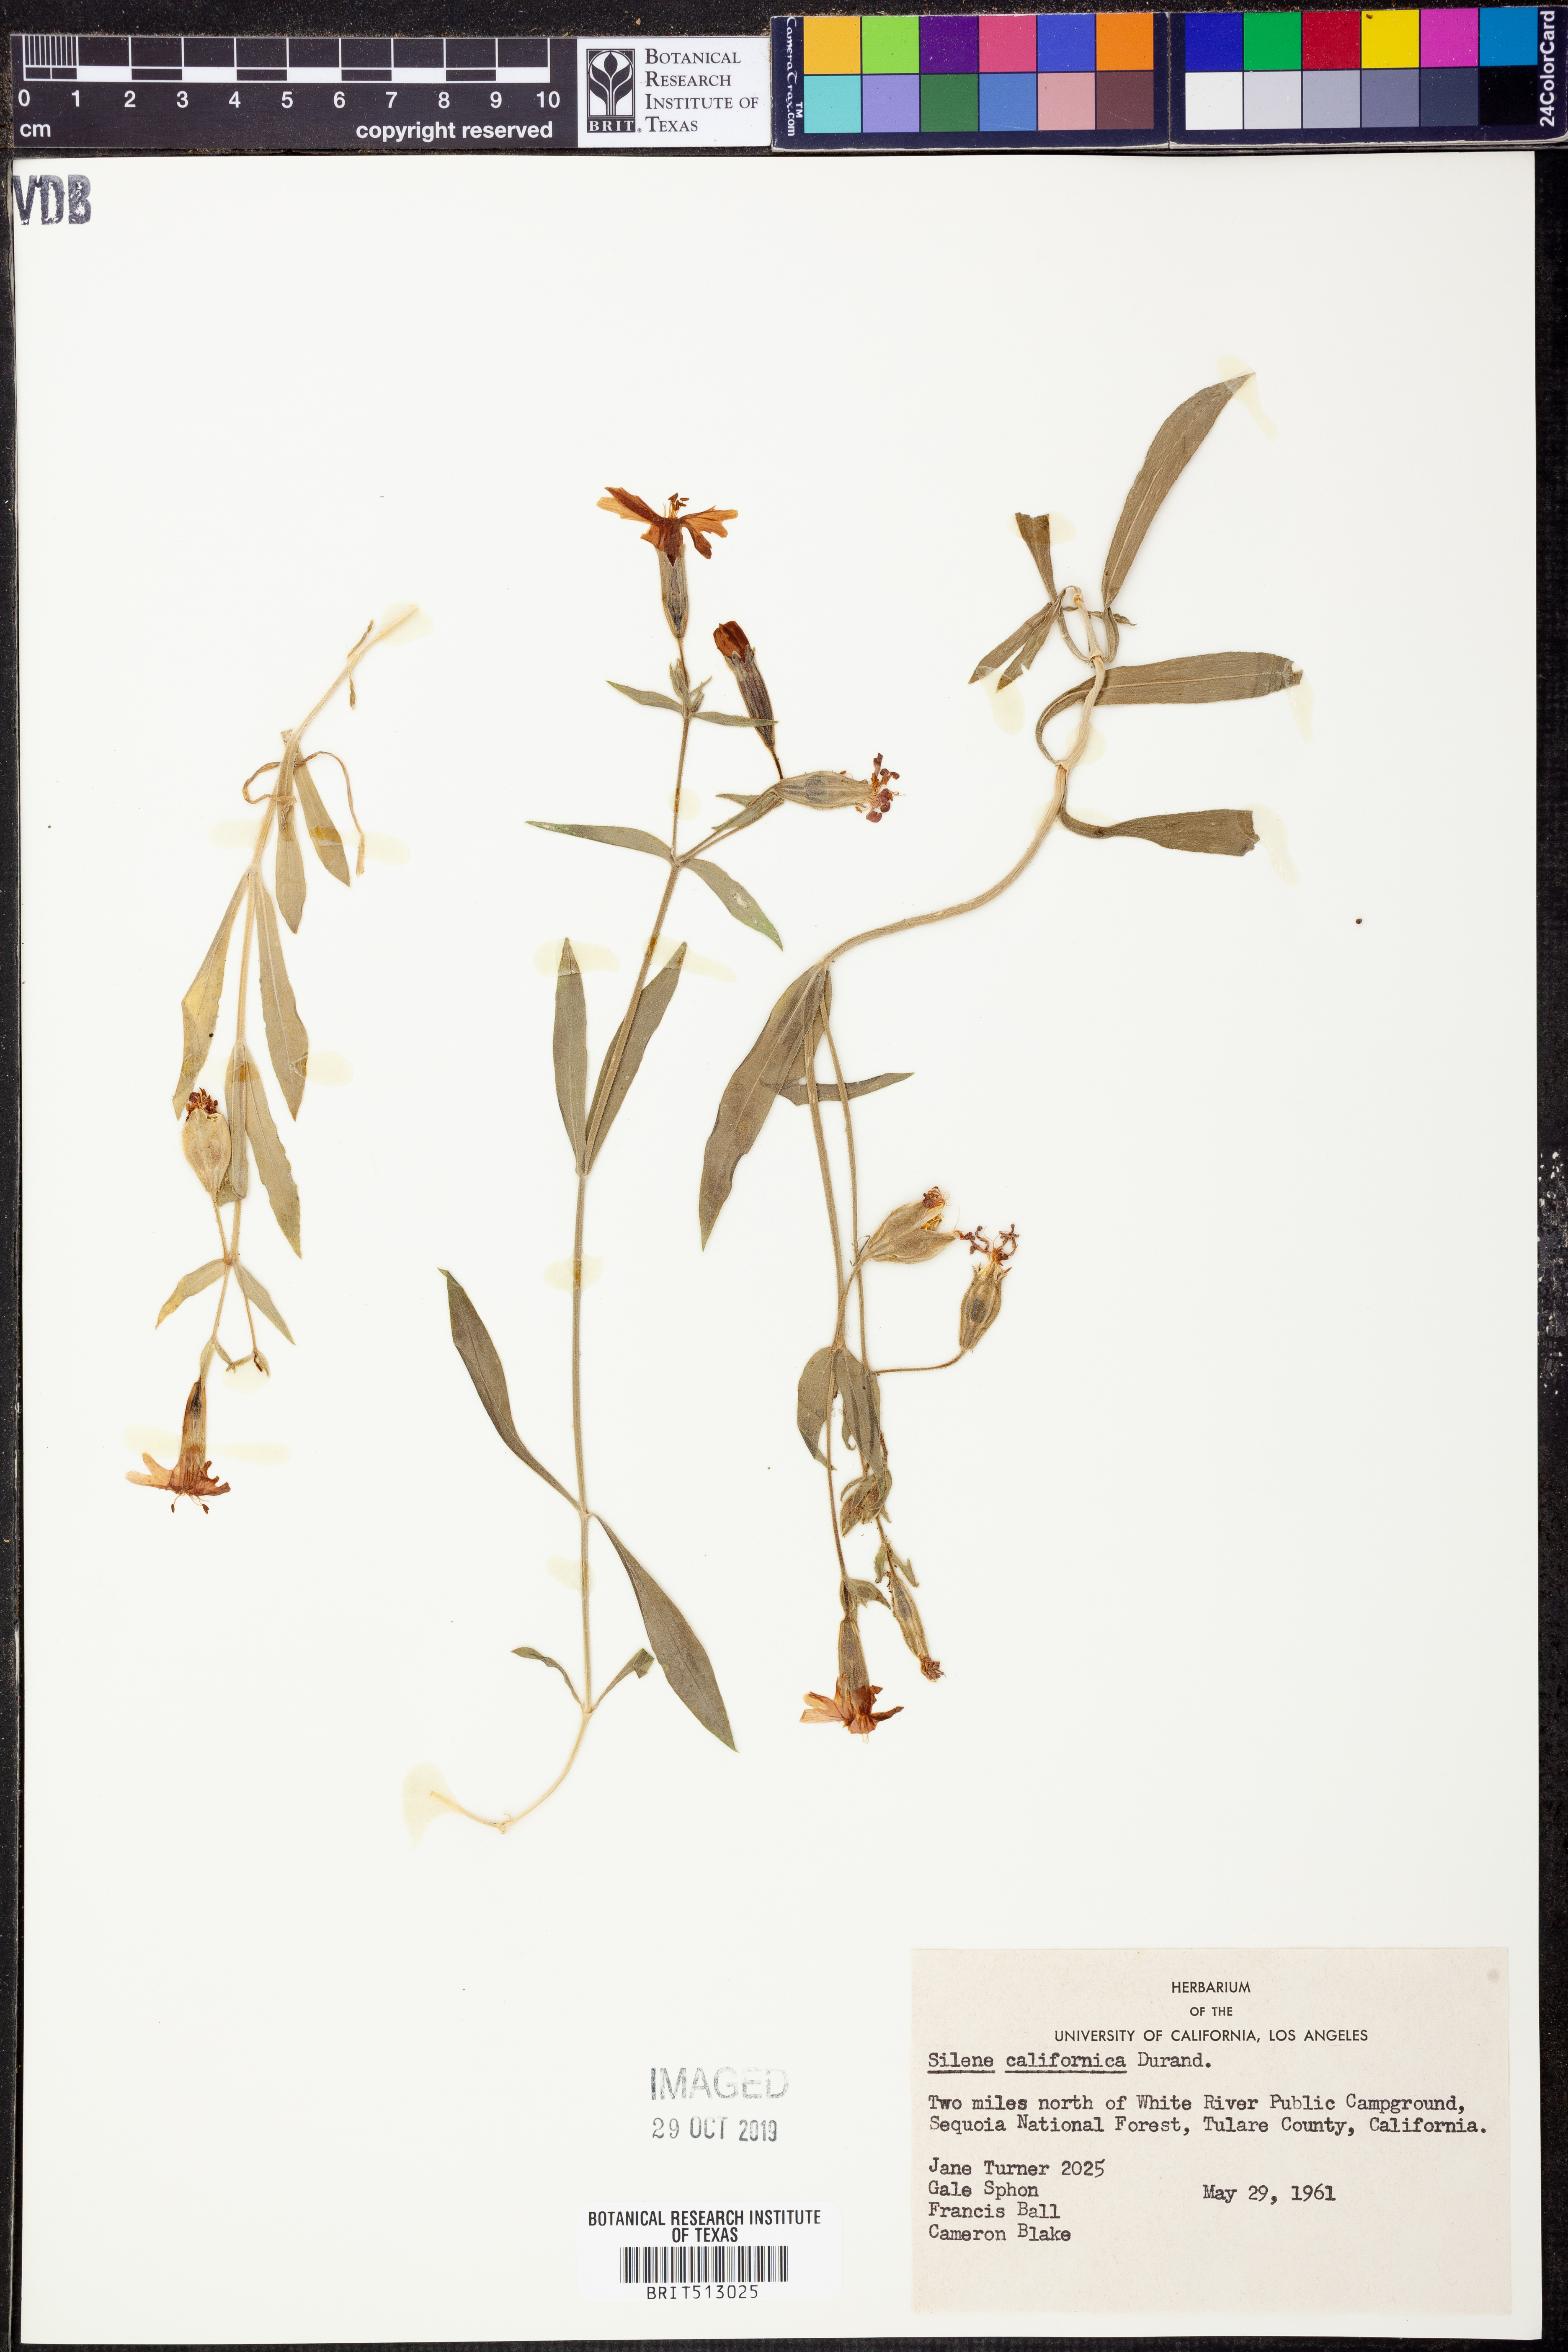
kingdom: Plantae
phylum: Tracheophyta
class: Magnoliopsida
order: Caryophyllales
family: Caryophyllaceae
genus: Silene
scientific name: Silene laciniata
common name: Indian-pink
